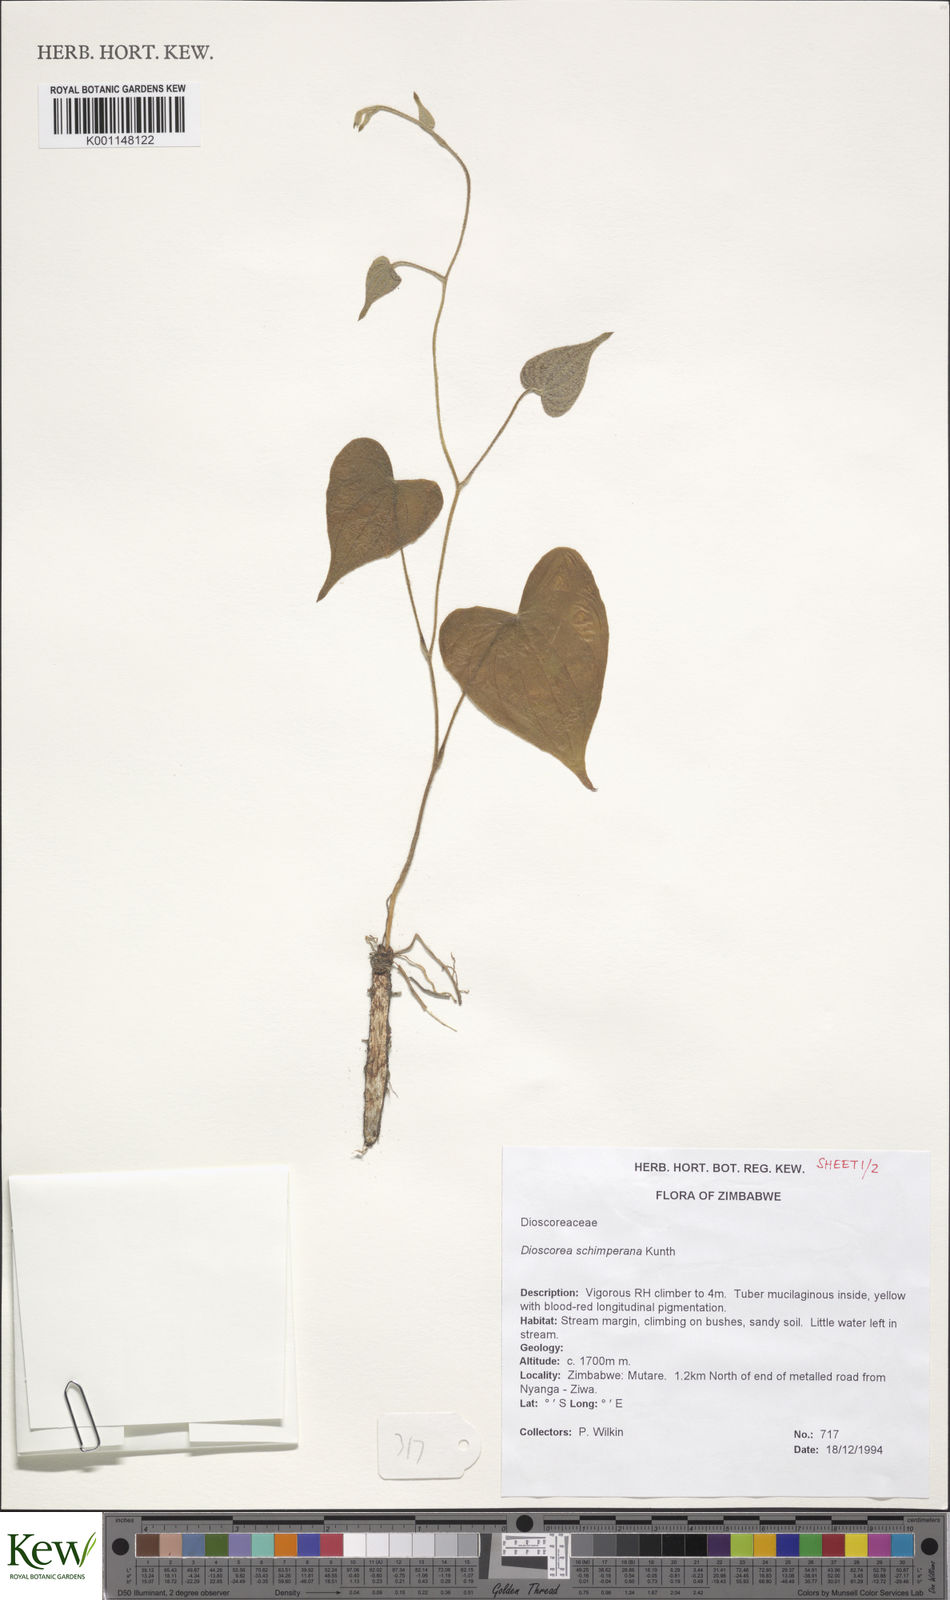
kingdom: Plantae
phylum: Tracheophyta
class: Liliopsida
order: Dioscoreales
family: Dioscoreaceae
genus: Dioscorea
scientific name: Dioscorea schimperiana
